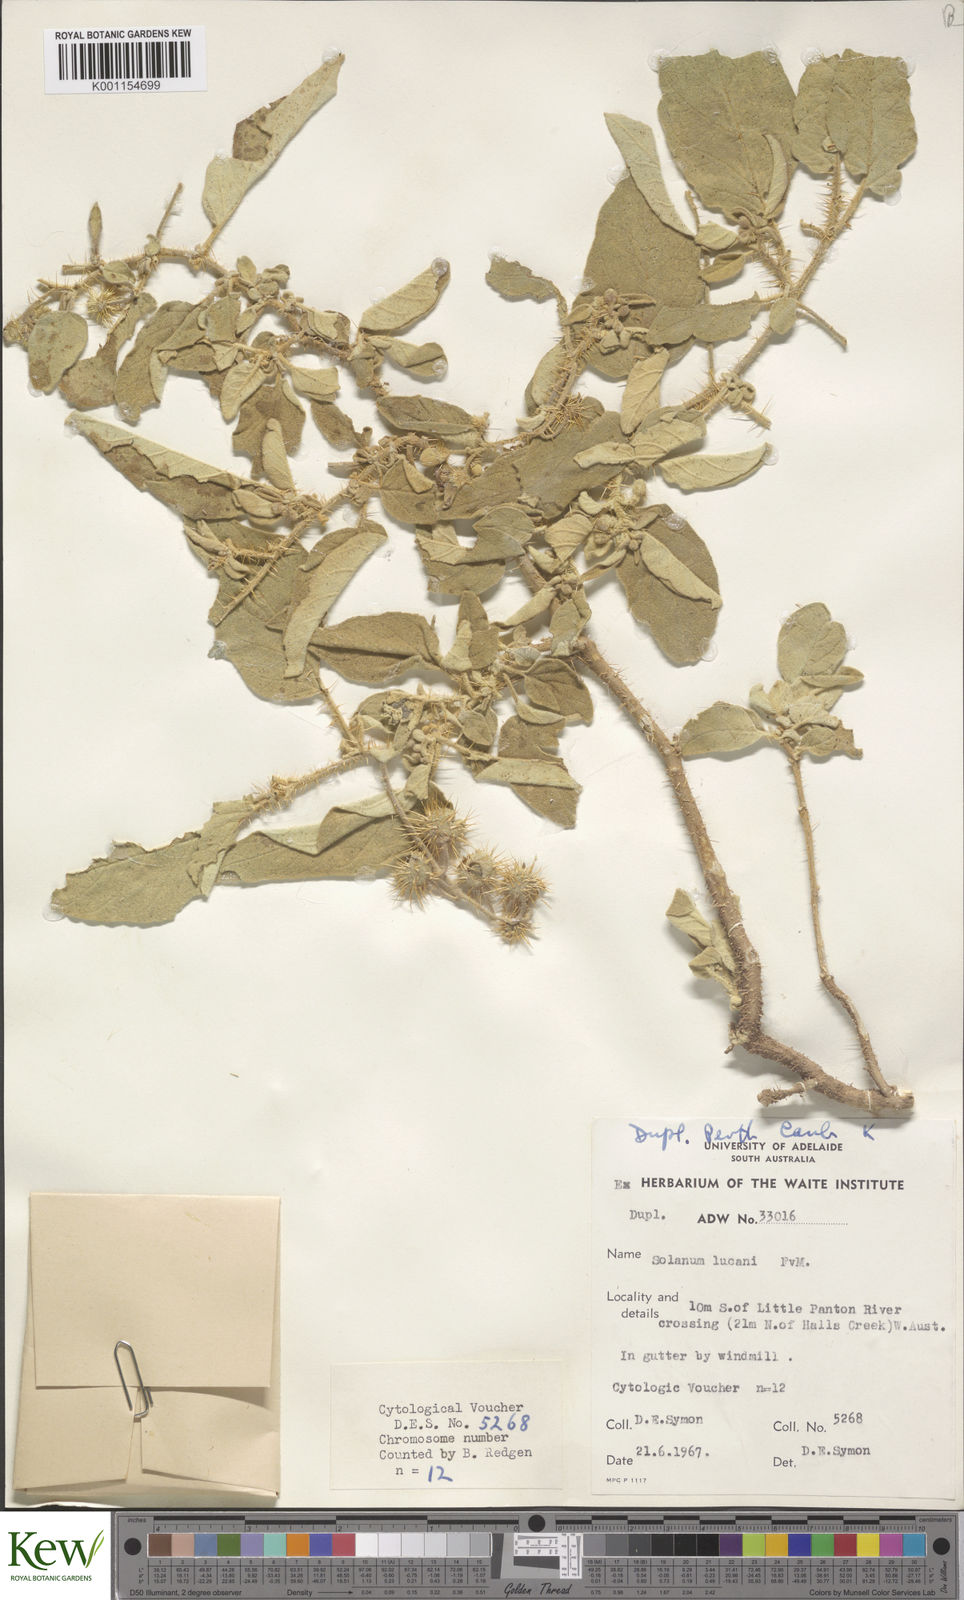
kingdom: Plantae
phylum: Tracheophyta
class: Magnoliopsida
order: Solanales
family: Solanaceae
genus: Solanum
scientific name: Solanum lucani
